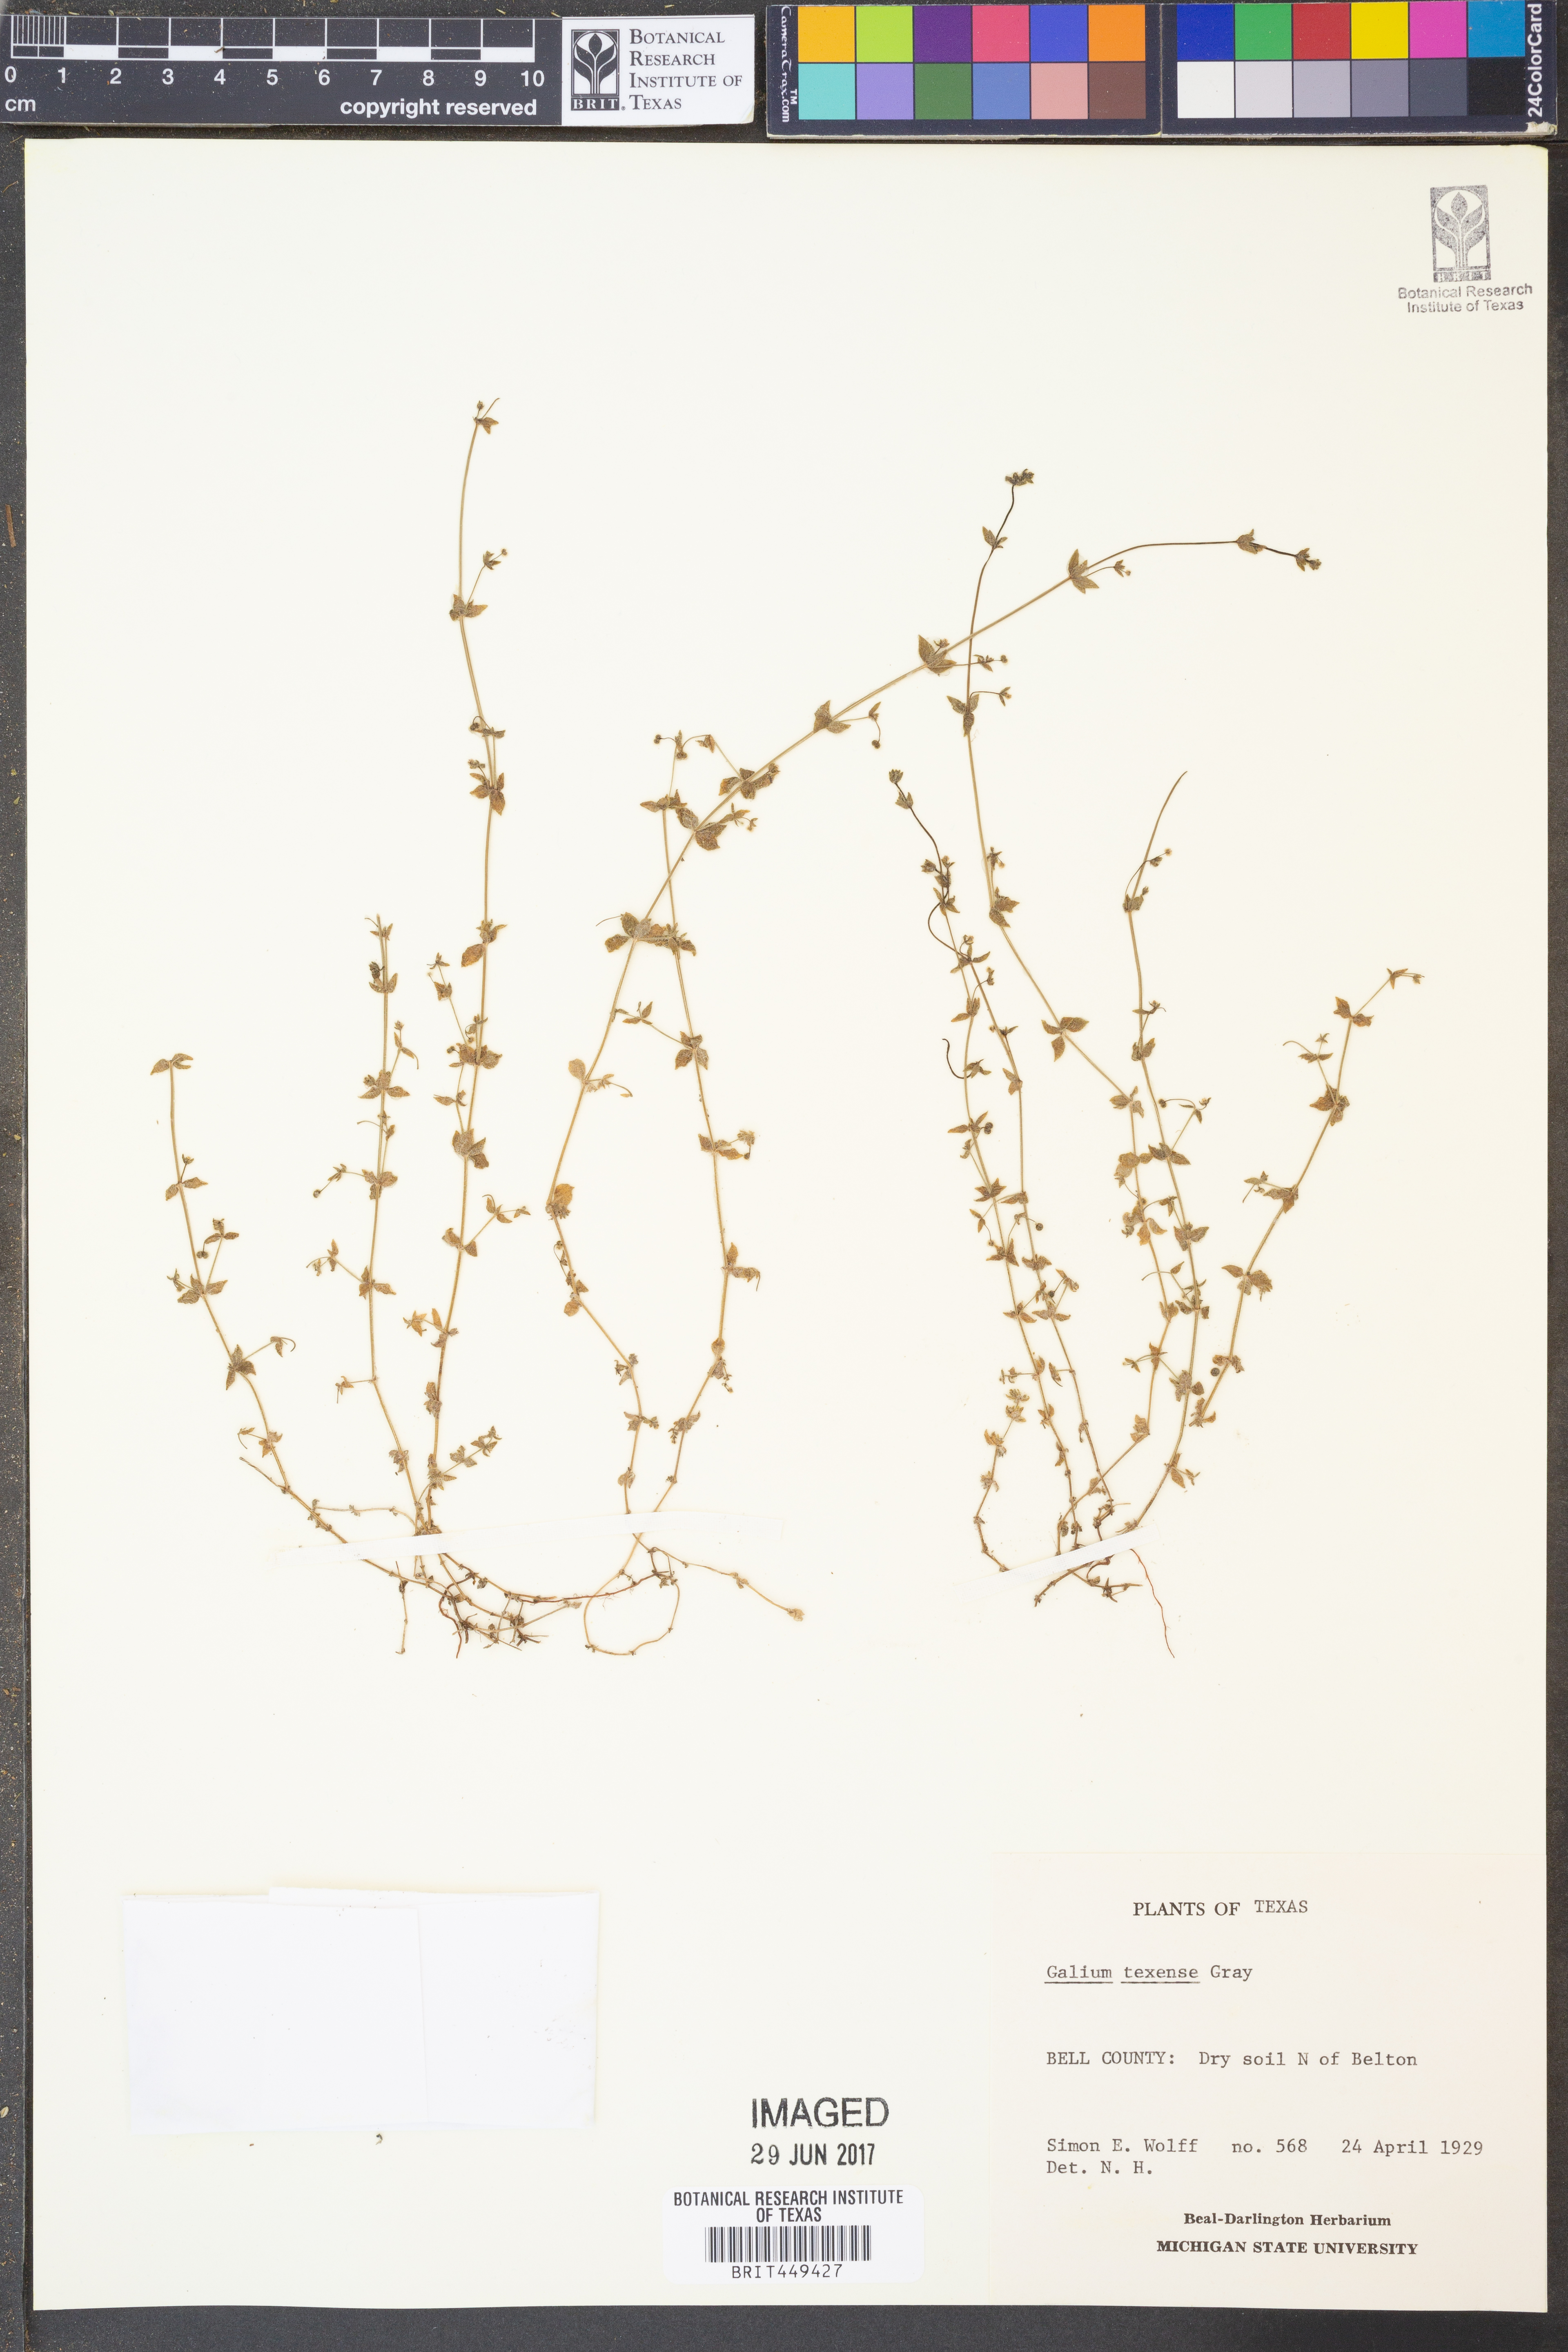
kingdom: Plantae
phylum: Tracheophyta
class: Magnoliopsida
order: Gentianales
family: Rubiaceae
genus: Galium
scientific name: Galium texense
